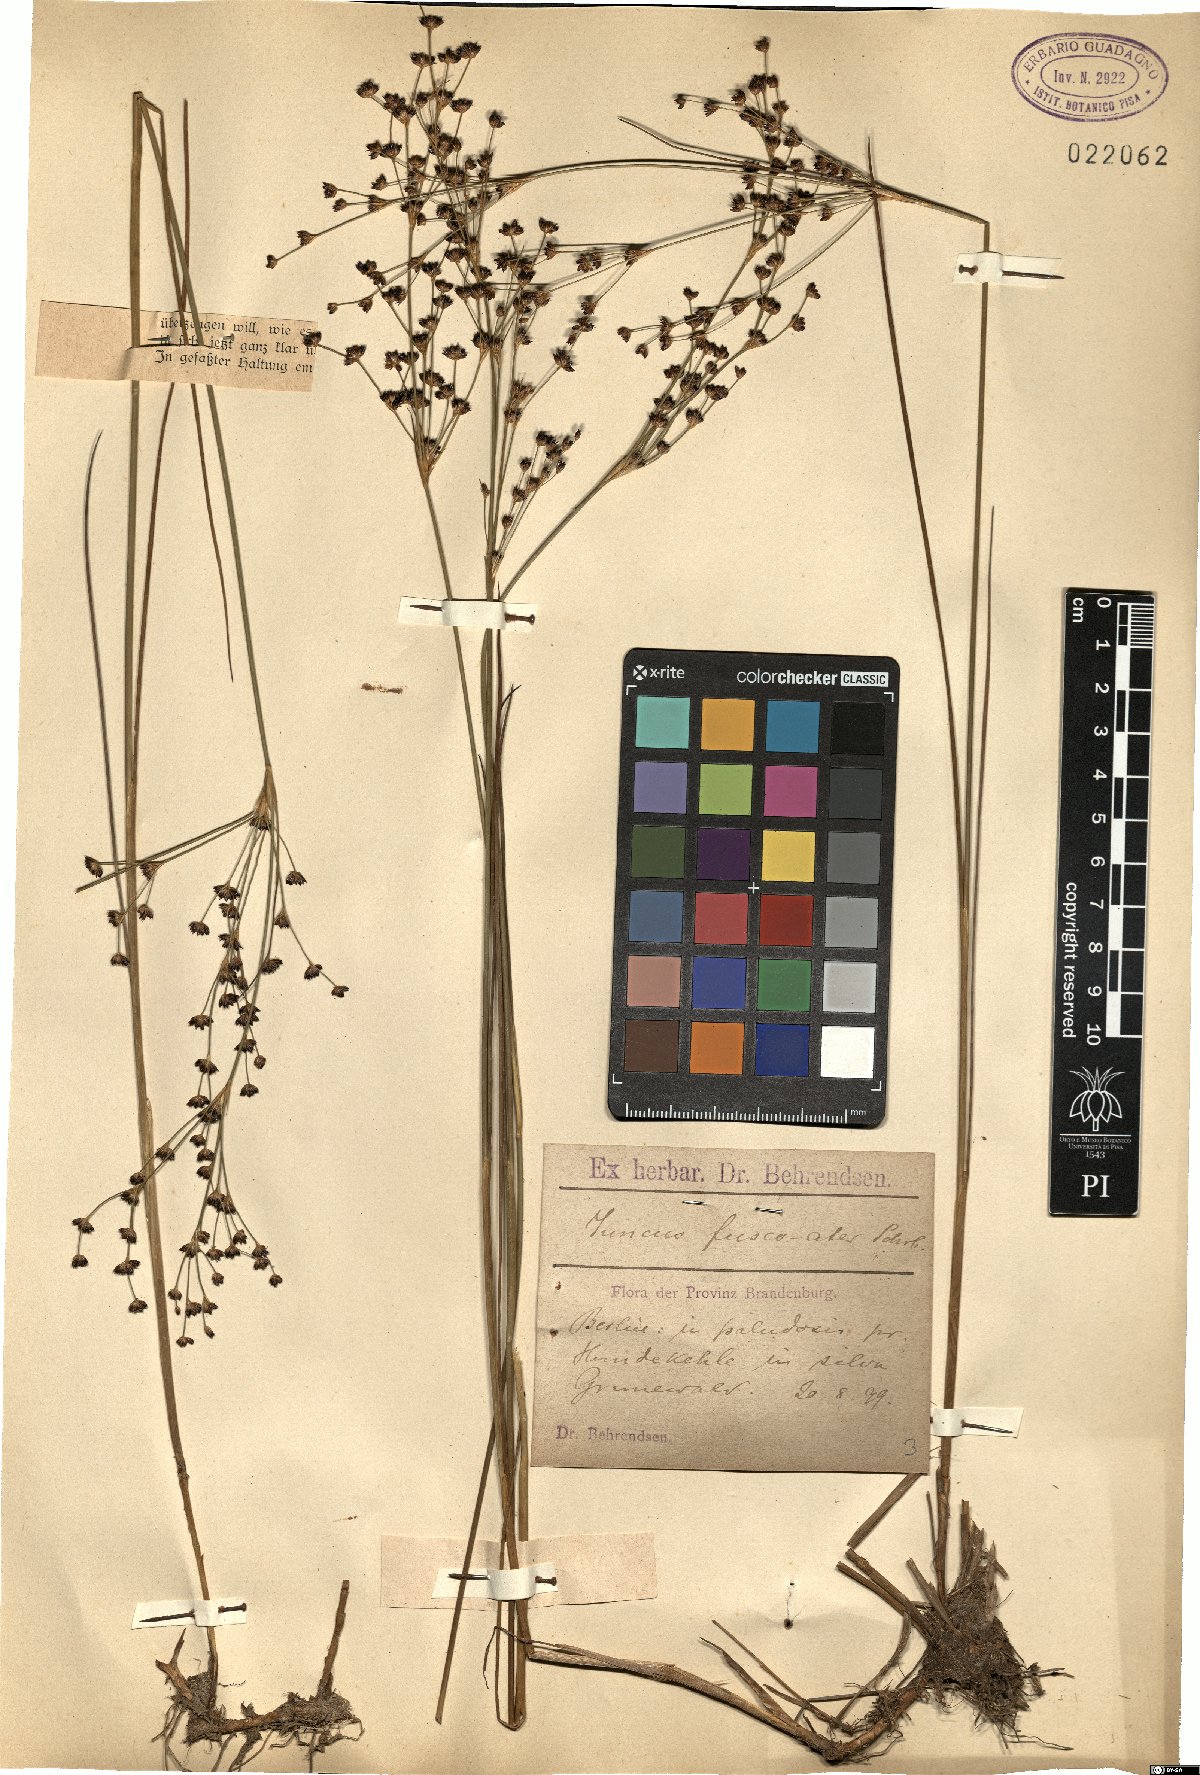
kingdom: Plantae
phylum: Tracheophyta
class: Liliopsida
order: Poales
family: Juncaceae
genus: Juncus
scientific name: Juncus alpinoarticulatus
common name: Alpine rush
